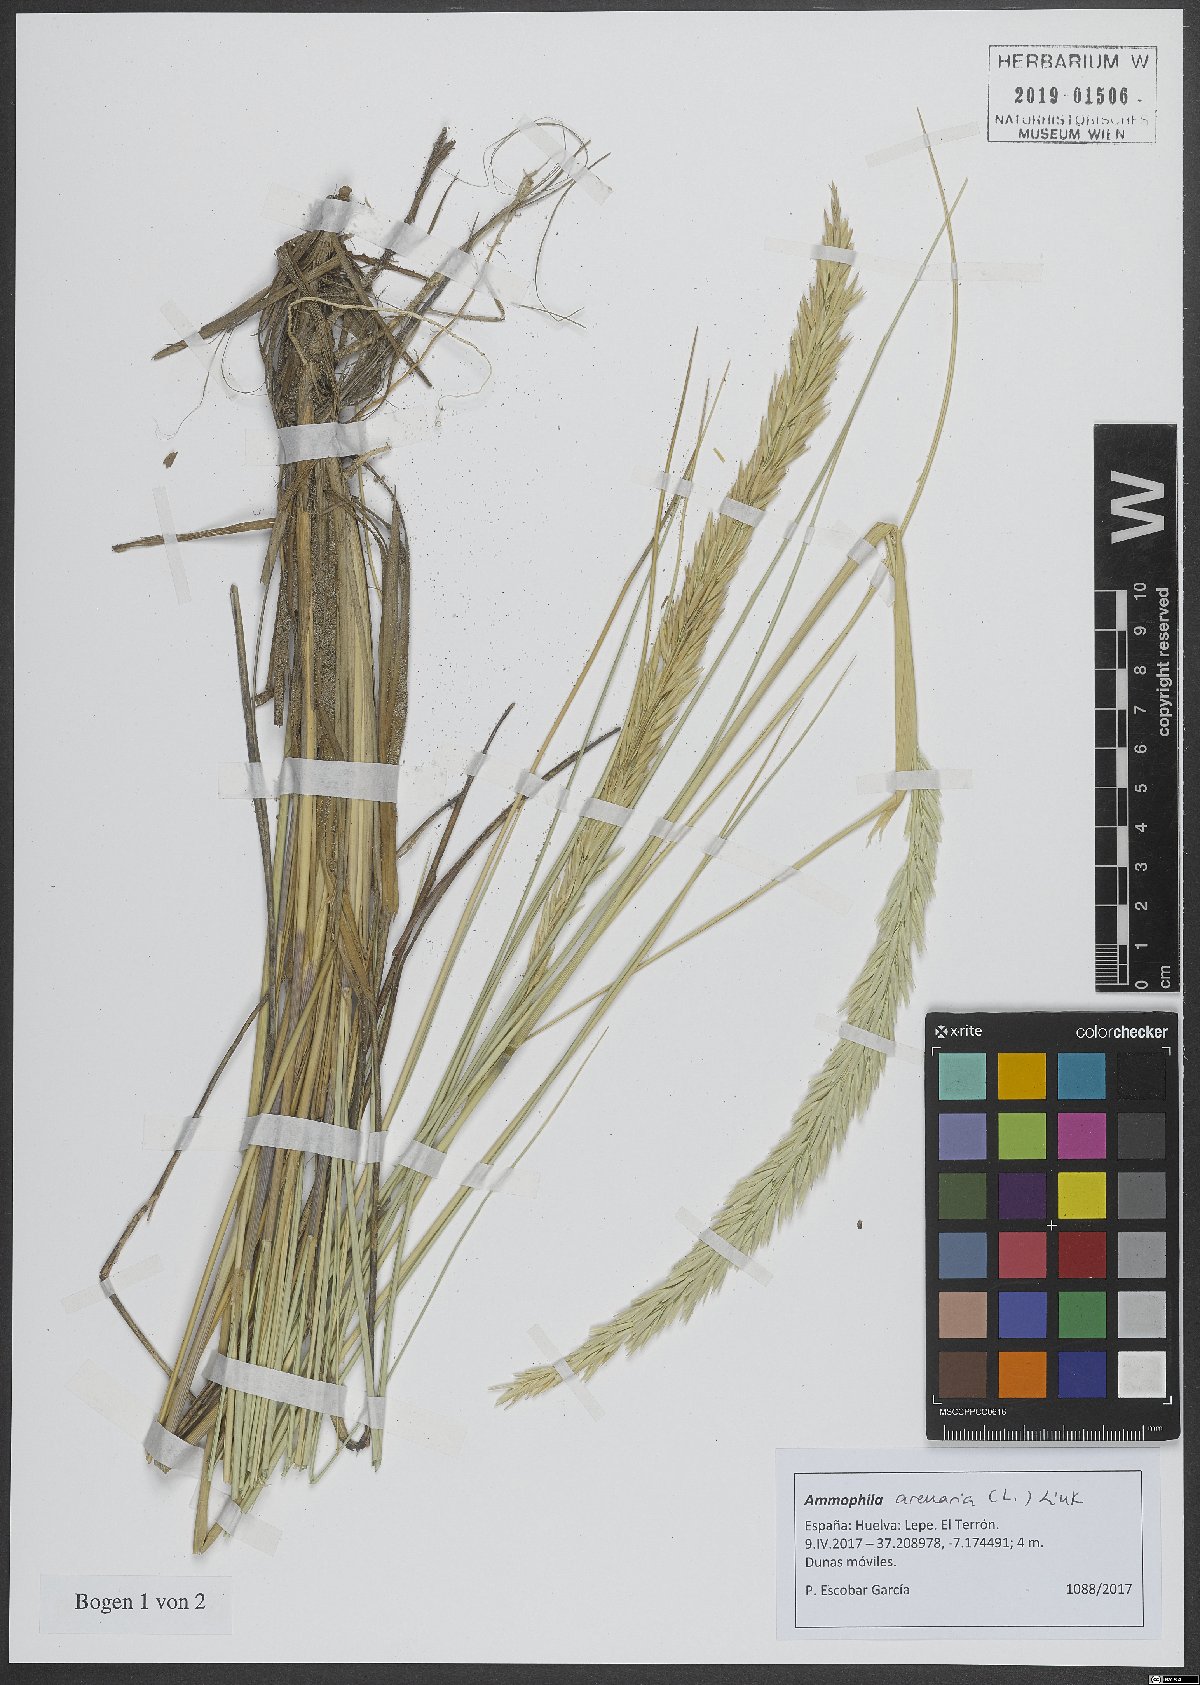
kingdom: Plantae
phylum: Tracheophyta
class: Liliopsida
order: Poales
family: Poaceae
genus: Calamagrostis
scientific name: Calamagrostis arenaria
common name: European beachgrass
